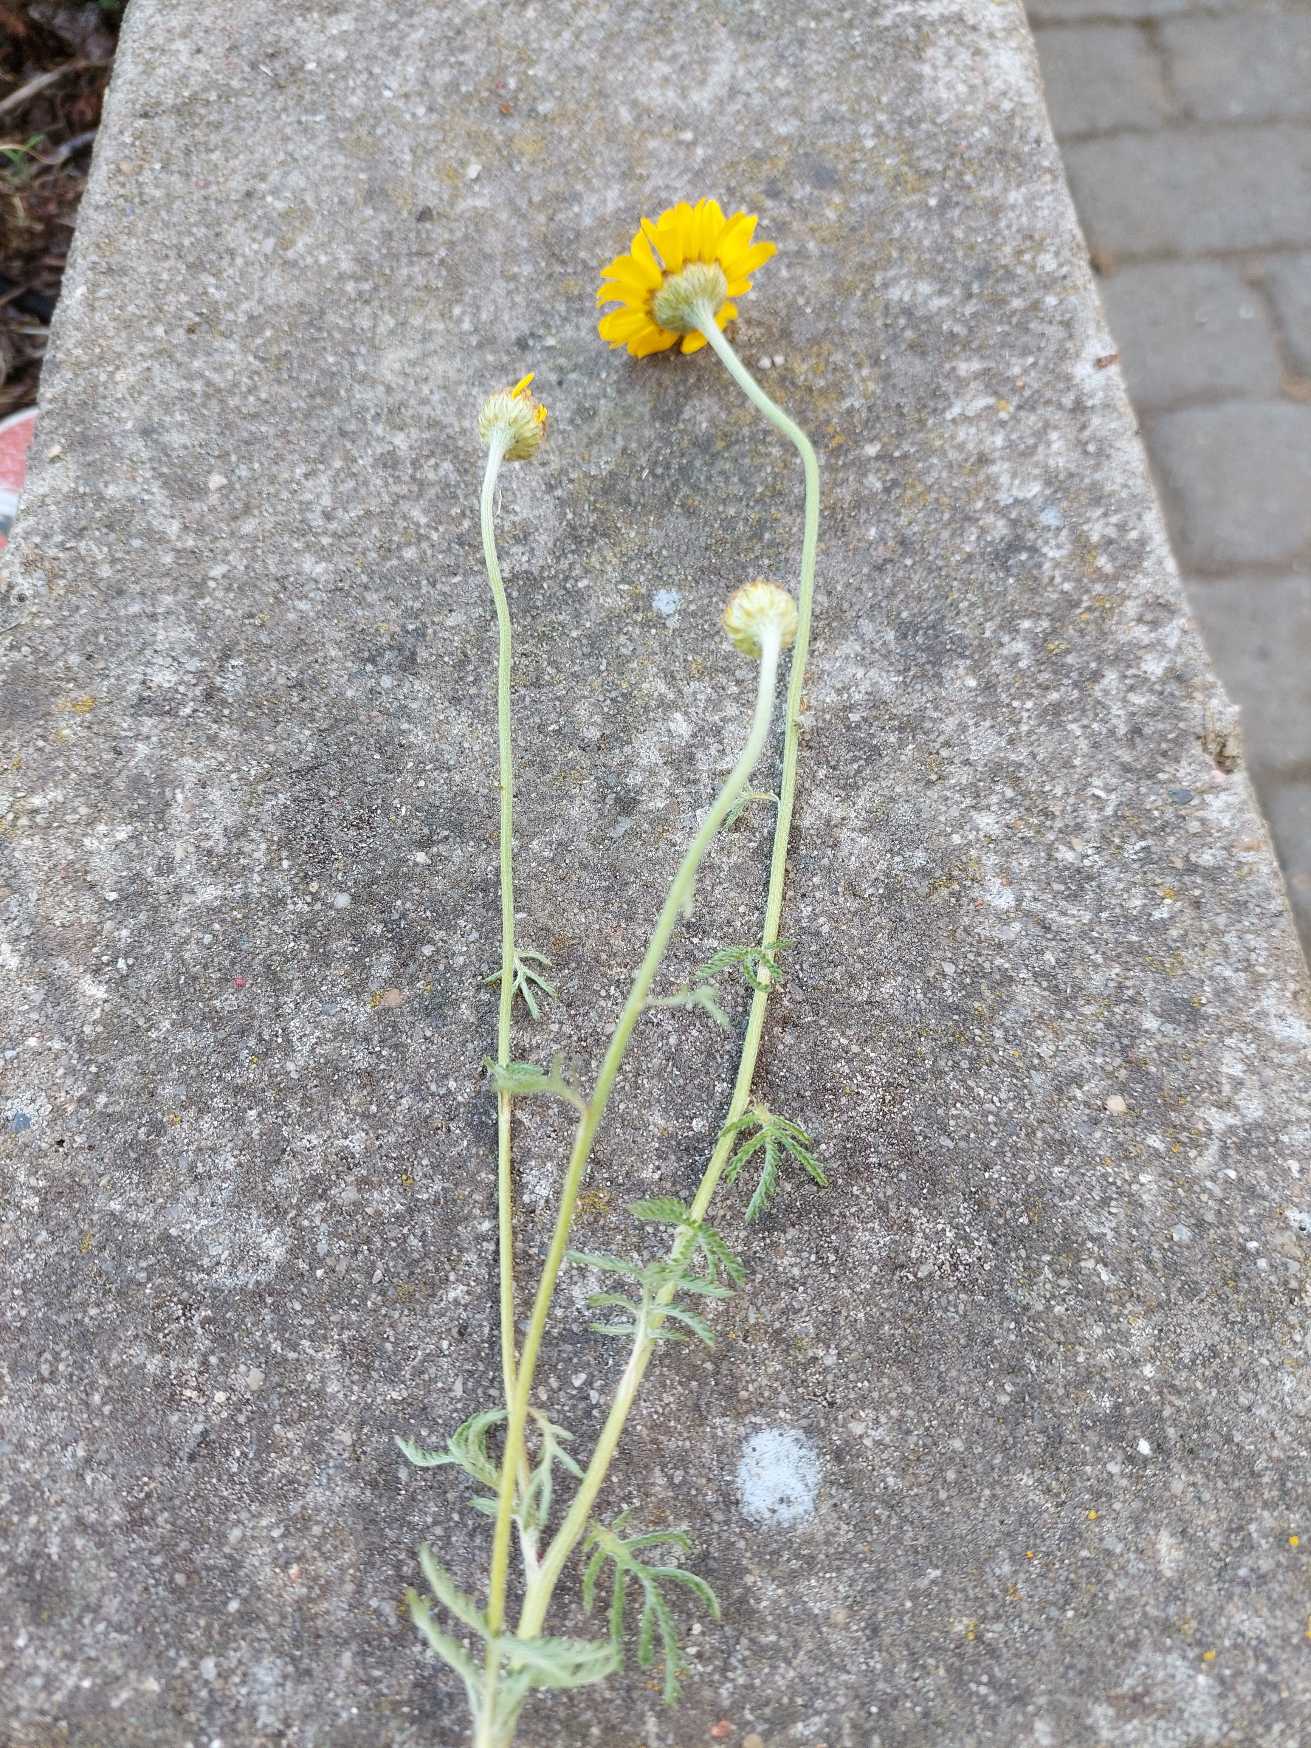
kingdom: Plantae
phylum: Tracheophyta
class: Magnoliopsida
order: Asterales
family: Asteraceae
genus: Cota
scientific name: Cota tinctoria
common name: Farve-gåseurt
